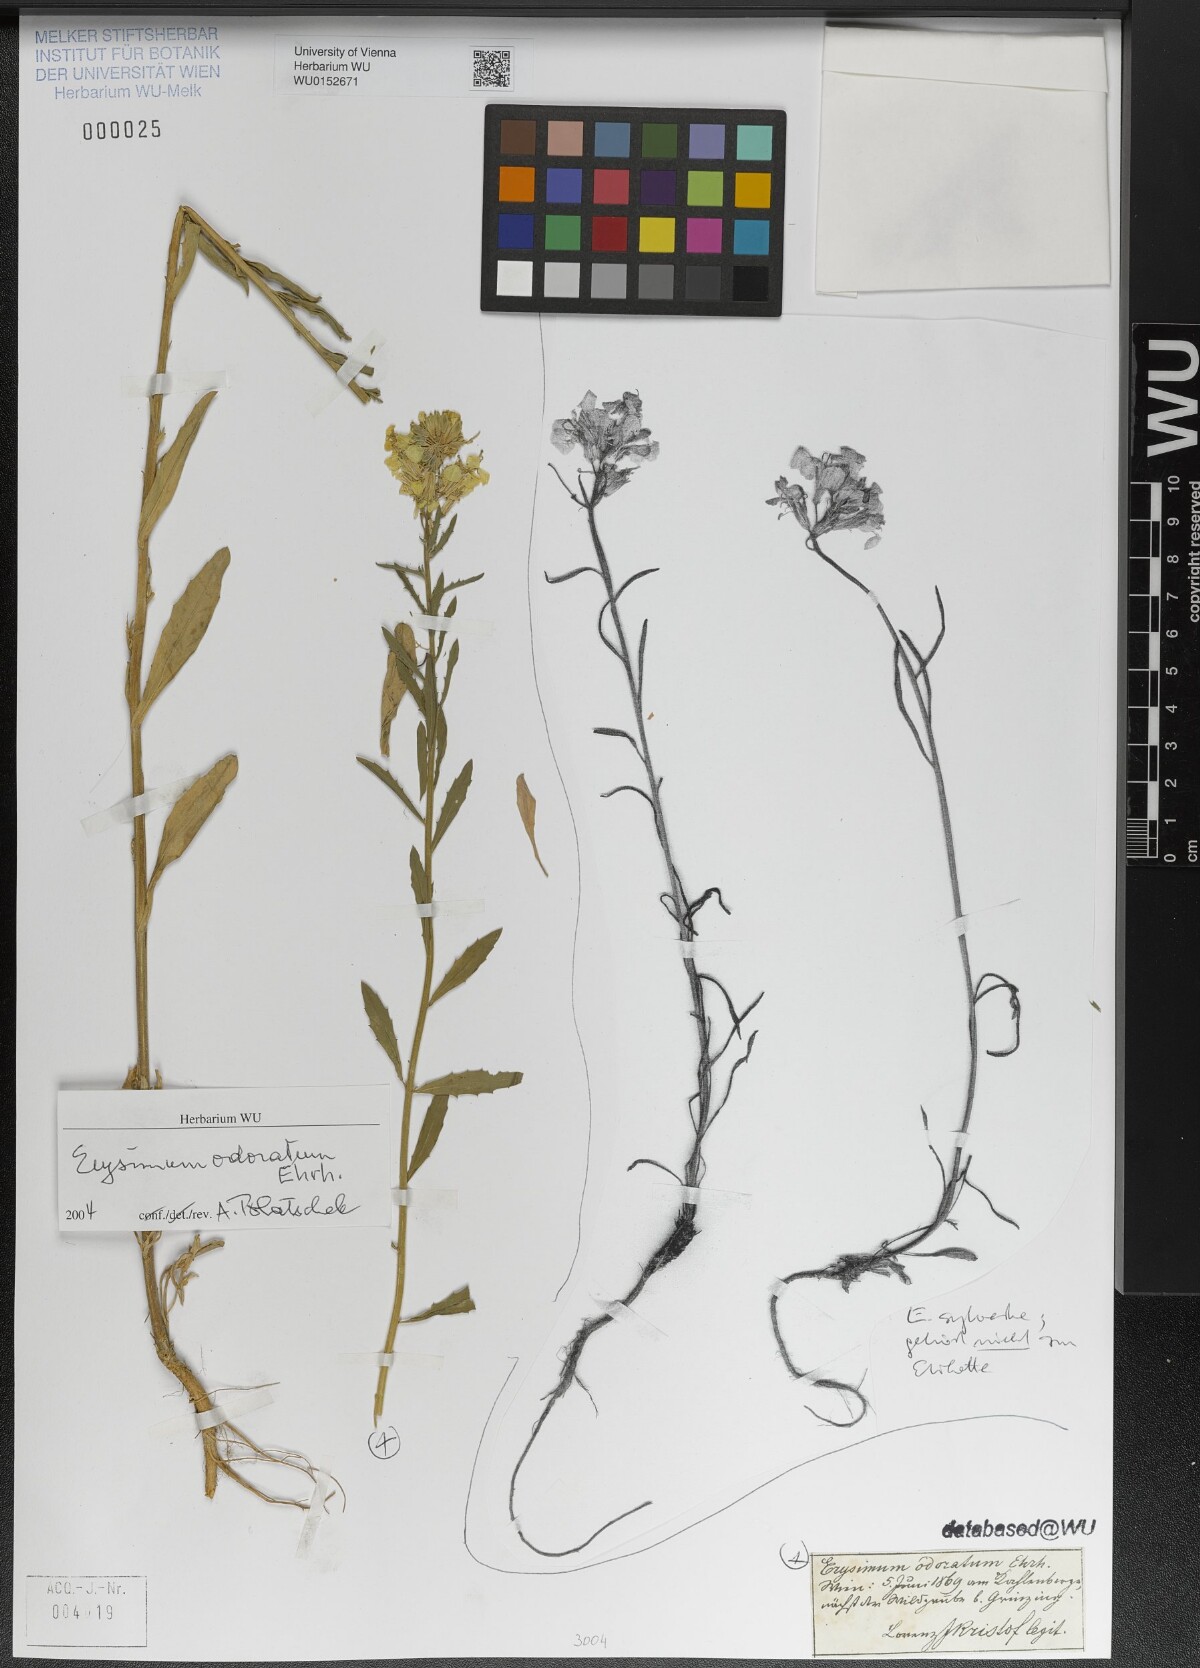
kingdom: Plantae
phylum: Tracheophyta
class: Magnoliopsida
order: Brassicales
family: Brassicaceae
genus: Erysimum
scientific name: Erysimum odoratum
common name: Smelly wallflower
